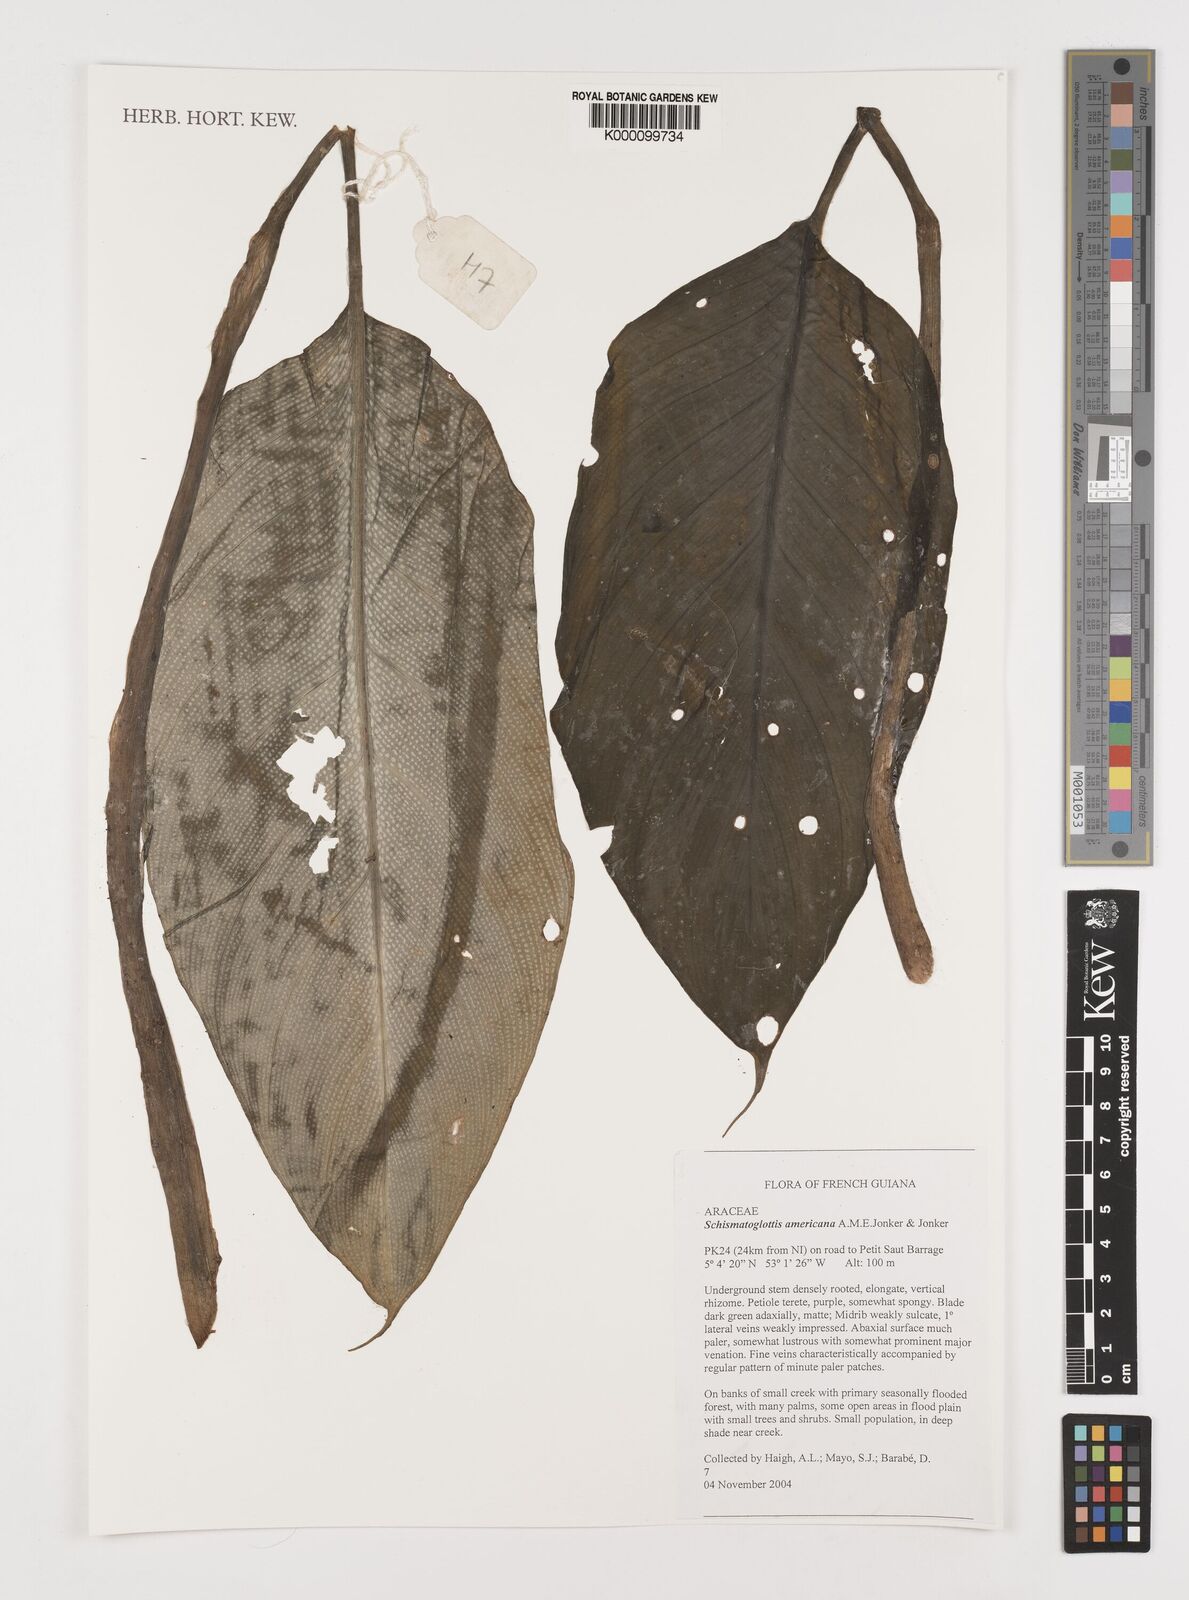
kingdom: Plantae
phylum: Tracheophyta
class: Liliopsida
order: Alismatales
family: Araceae
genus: Philonotion
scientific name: Philonotion americanum
